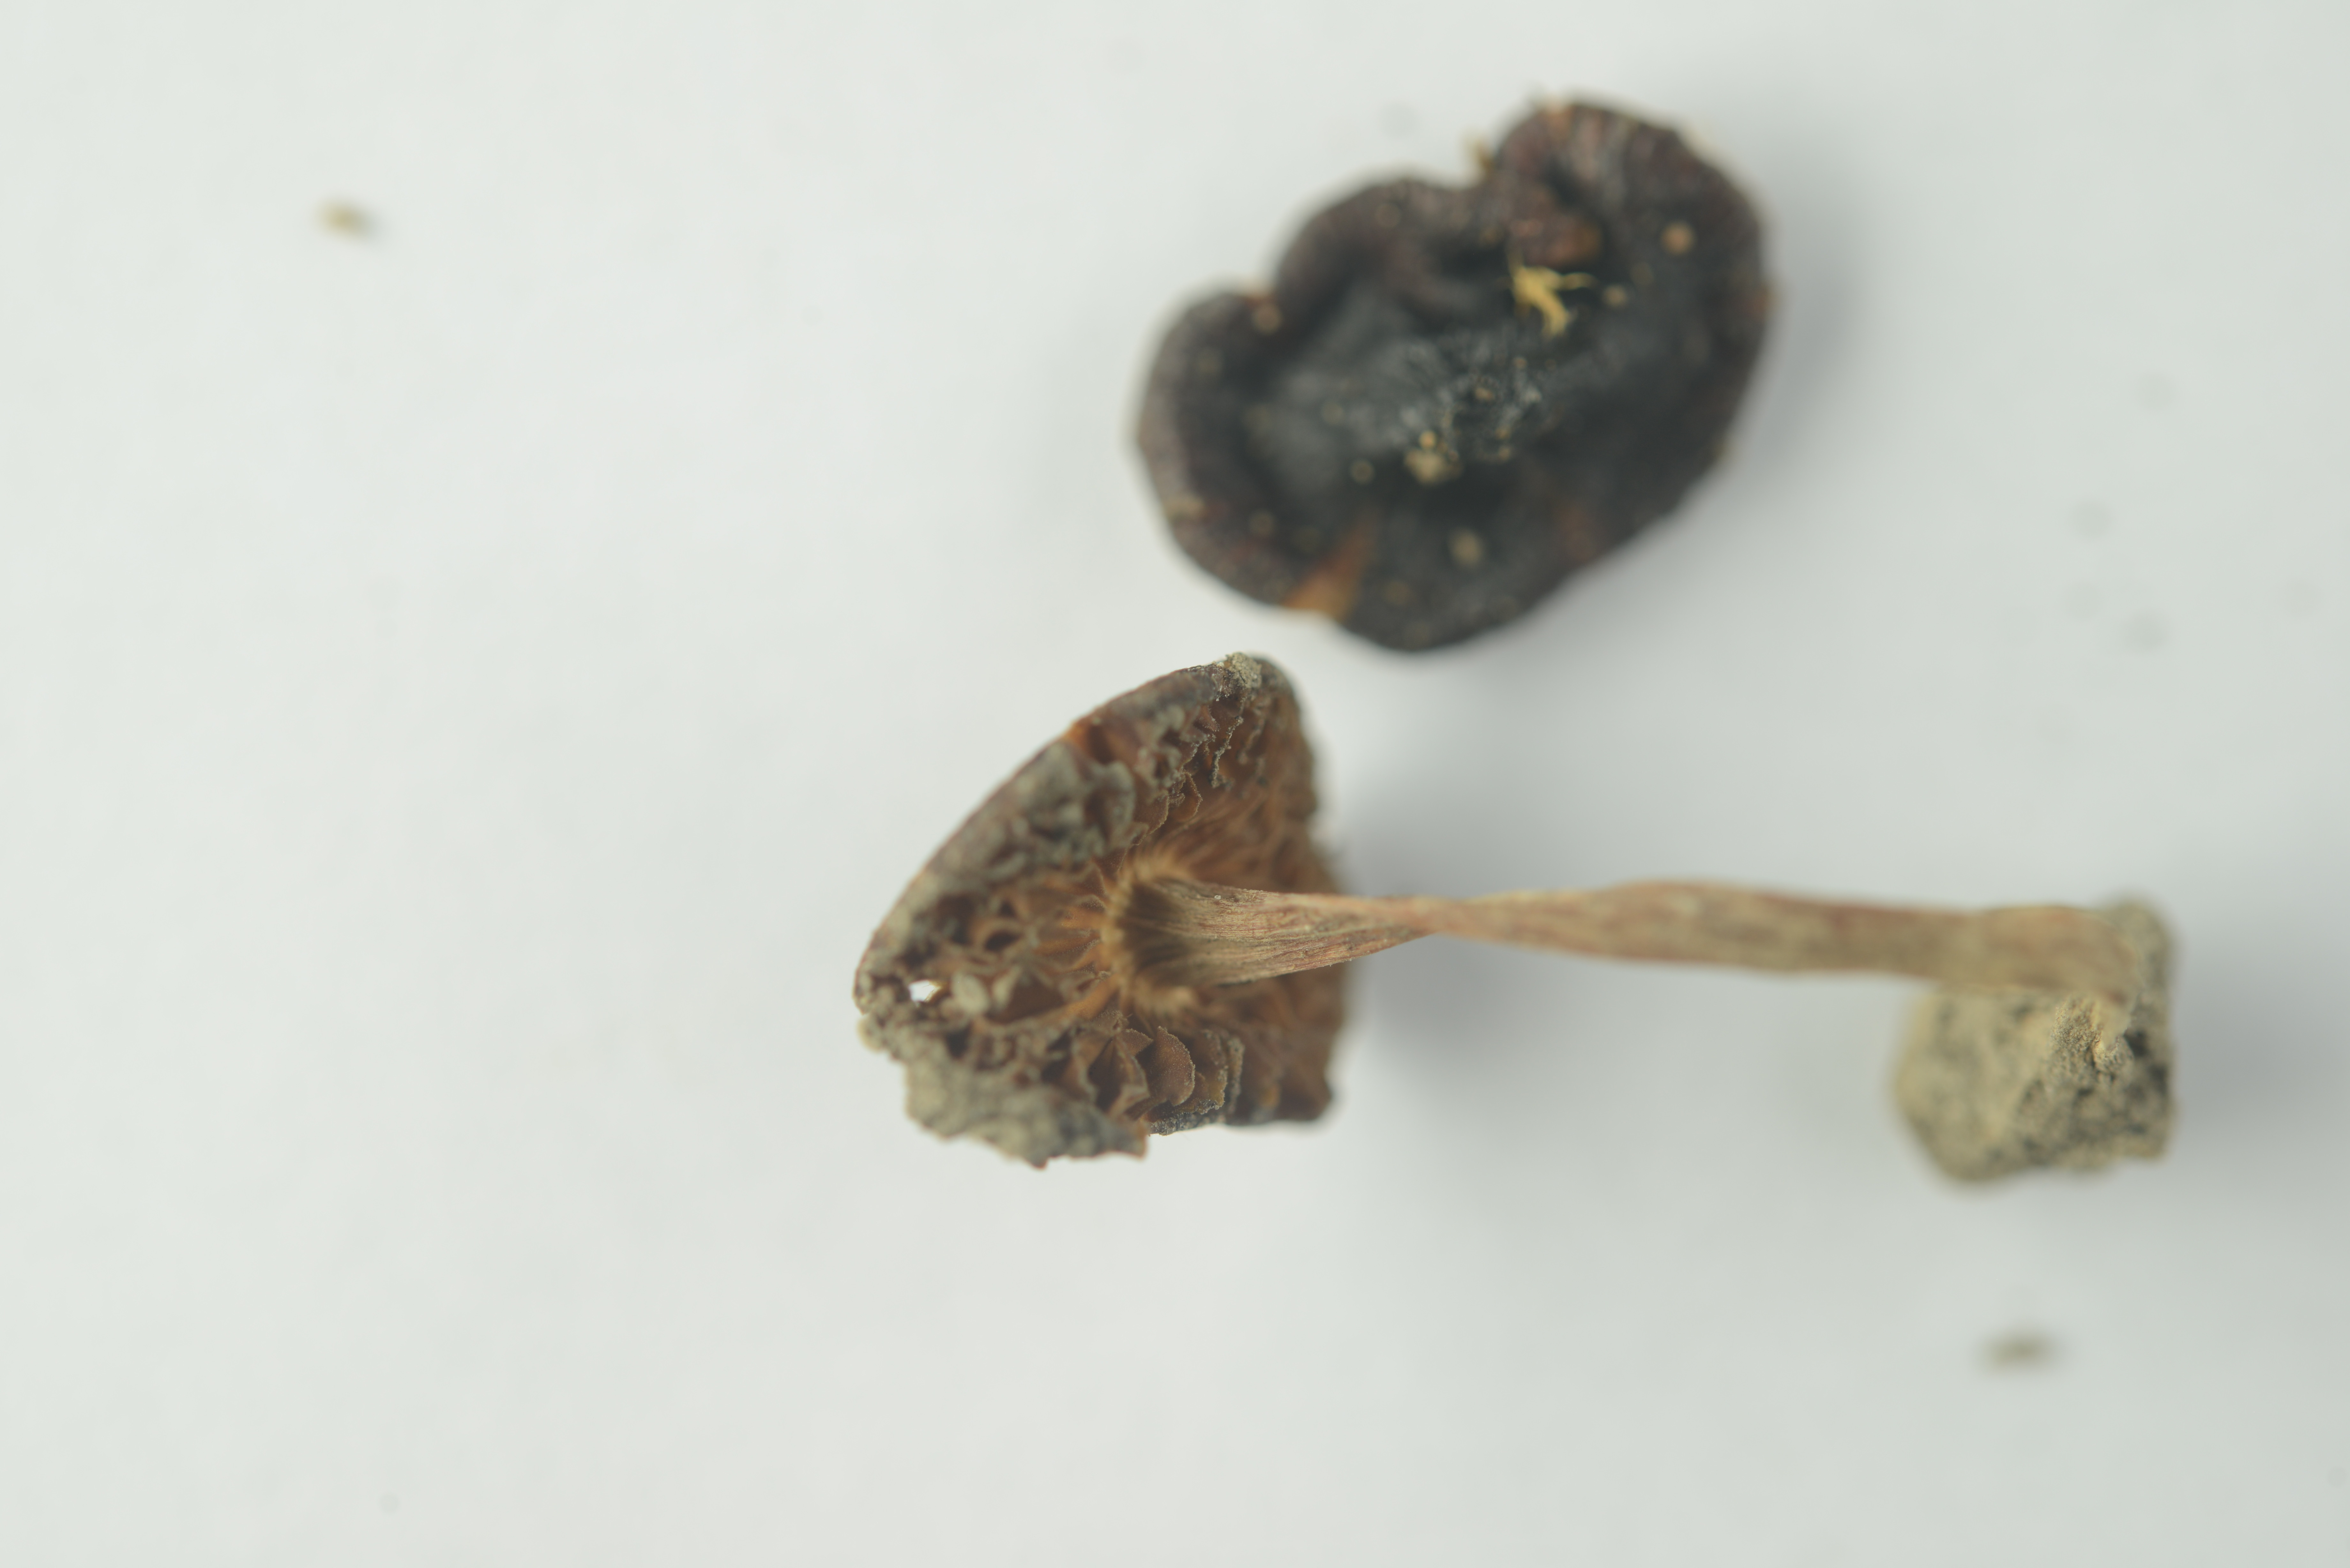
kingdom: Fungi
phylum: Basidiomycota
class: Agaricomycetes
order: Agaricales
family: Inocybaceae
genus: Inocybe
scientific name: Inocybe nitidiuscula
